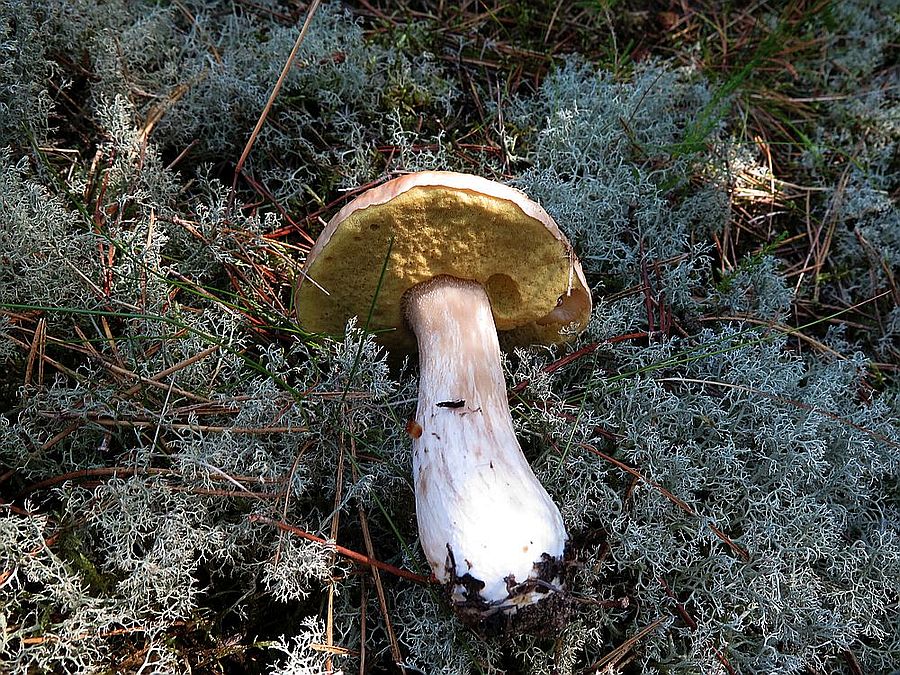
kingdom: Fungi
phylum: Basidiomycota
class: Agaricomycetes
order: Boletales
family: Boletaceae
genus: Boletus
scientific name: Boletus edulis
